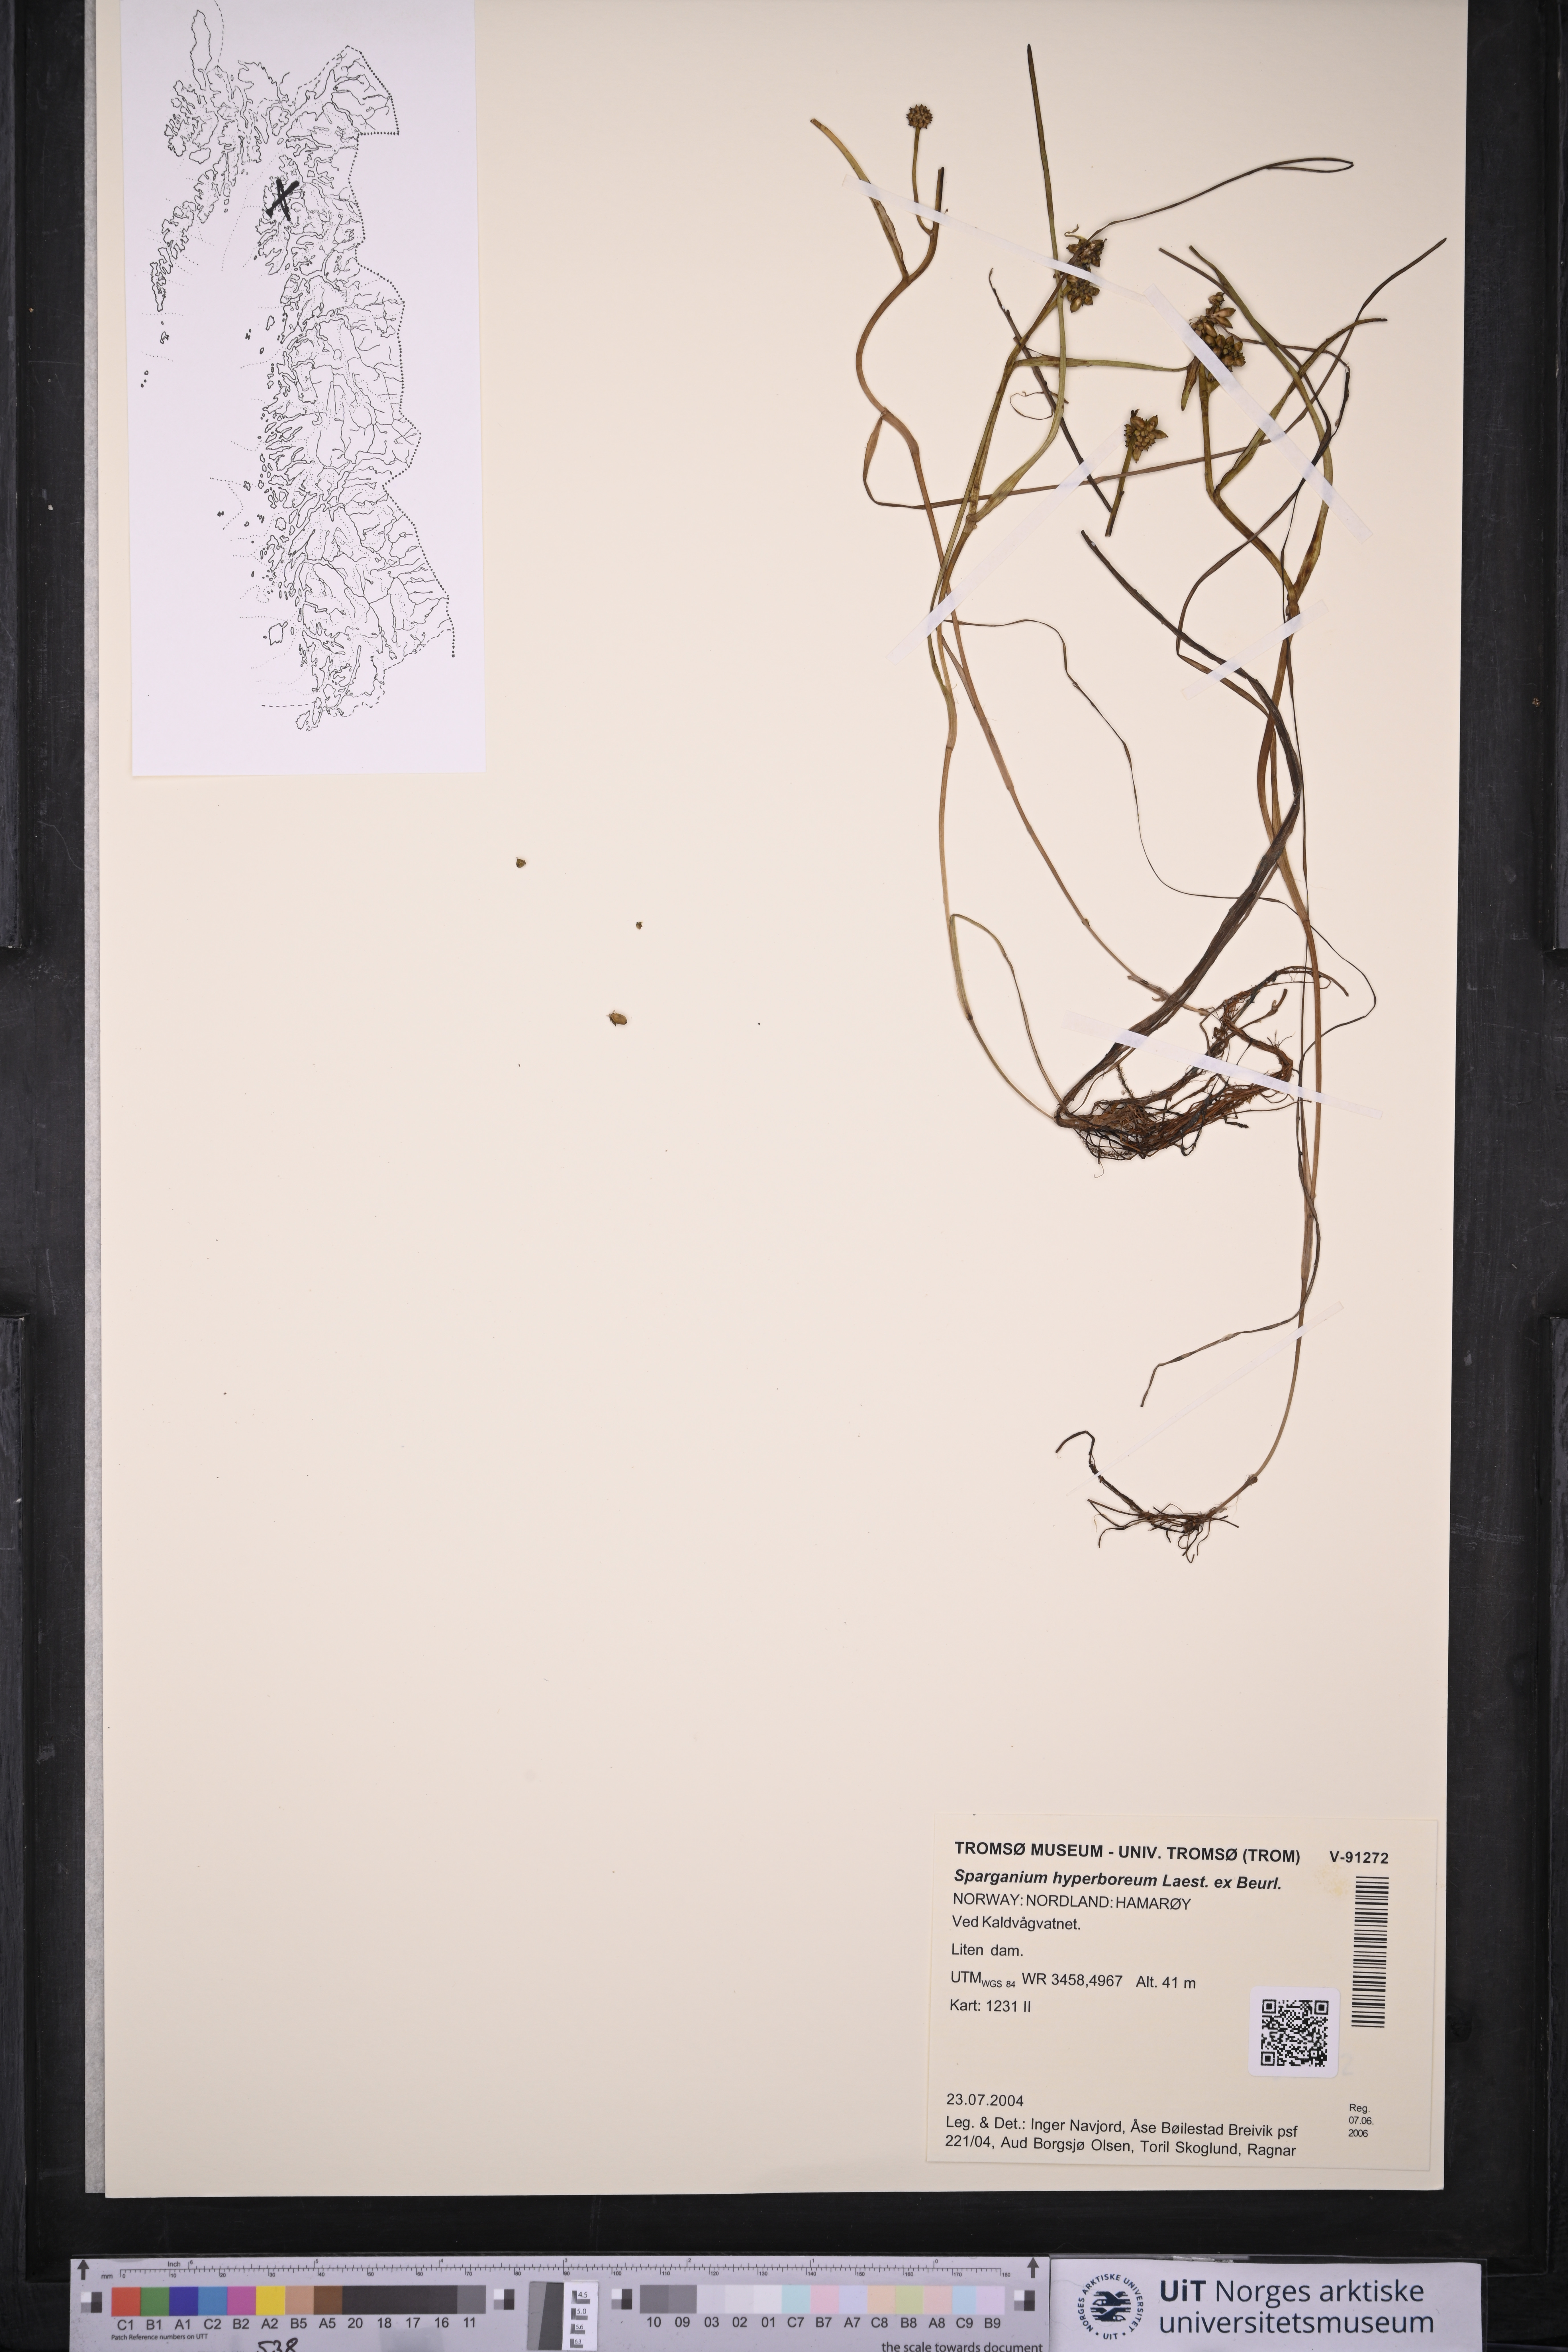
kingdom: Plantae
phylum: Tracheophyta
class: Liliopsida
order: Poales
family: Typhaceae
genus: Sparganium
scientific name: Sparganium hyperboreum
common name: Arctic burreed
